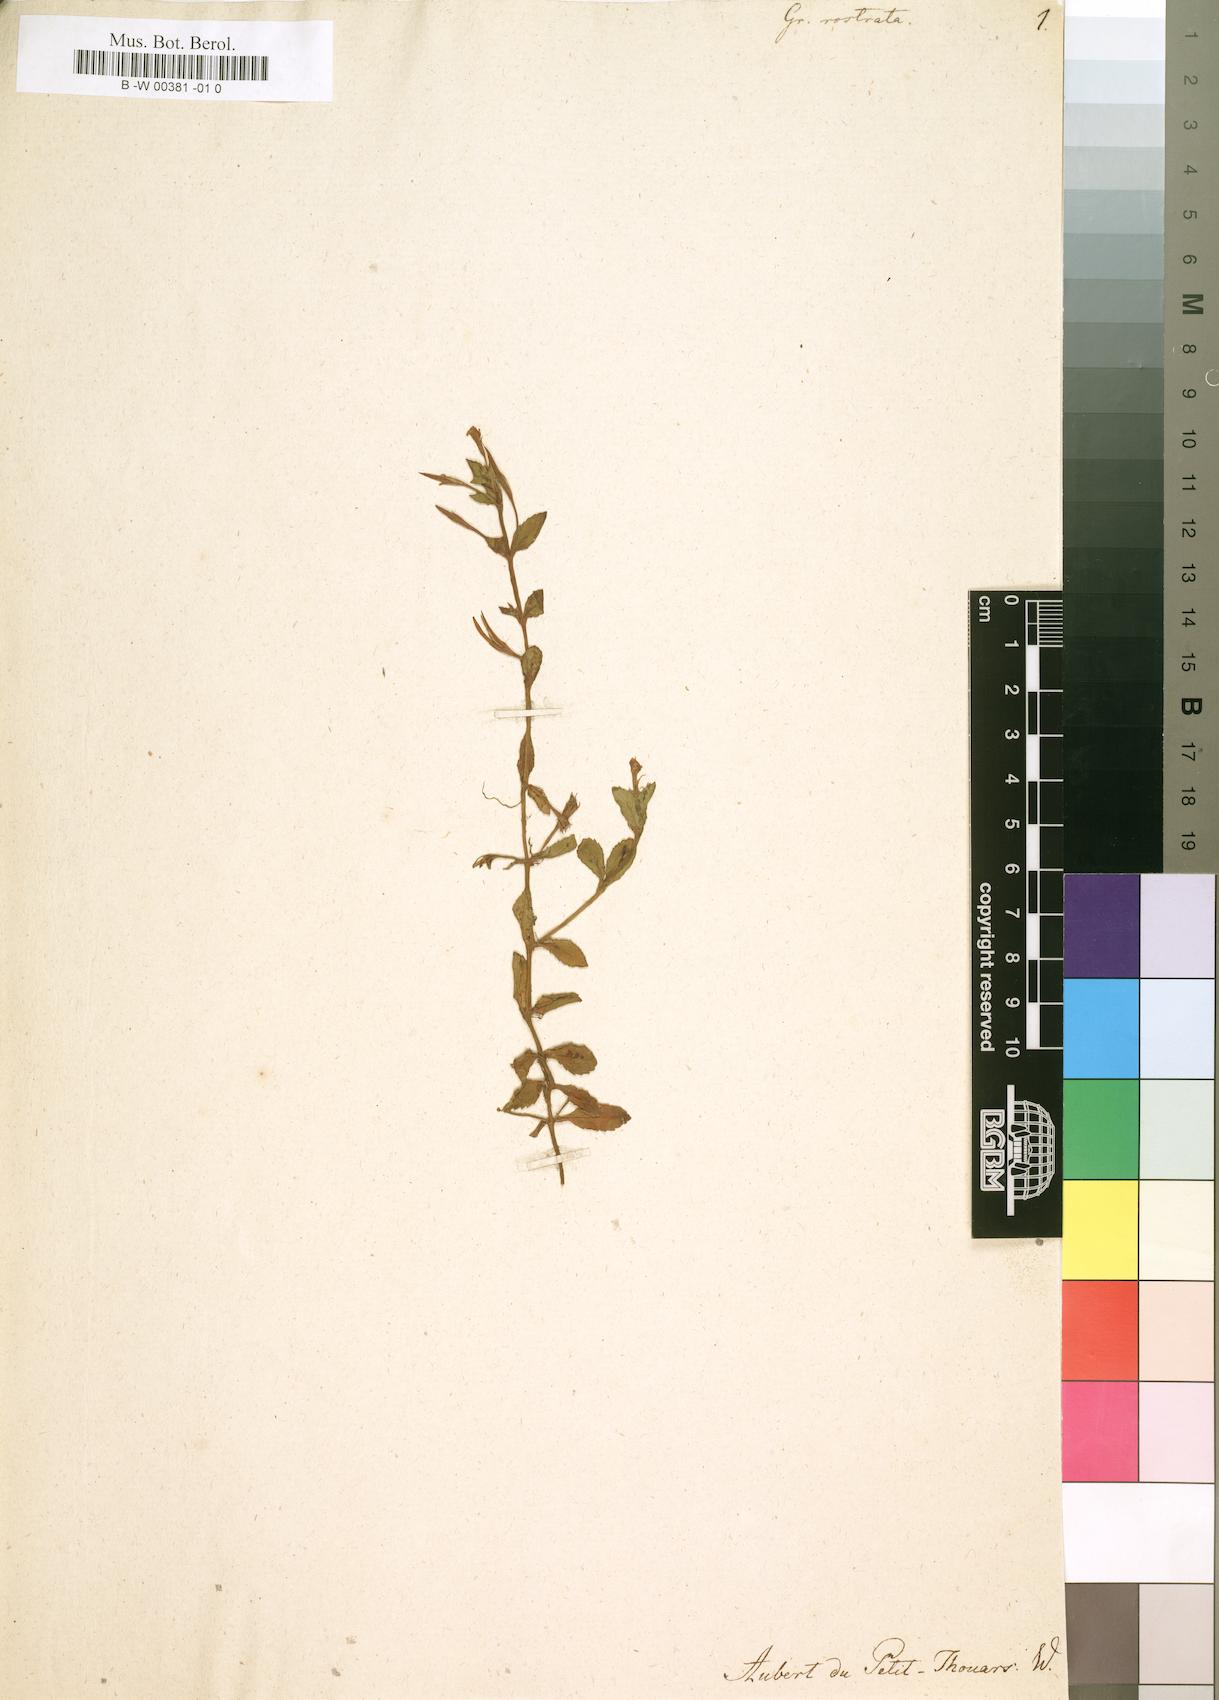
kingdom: Plantae
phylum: Tracheophyta
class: Magnoliopsida
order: Lamiales
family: Plantaginaceae
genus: Gratiola
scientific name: Gratiola rostrata
